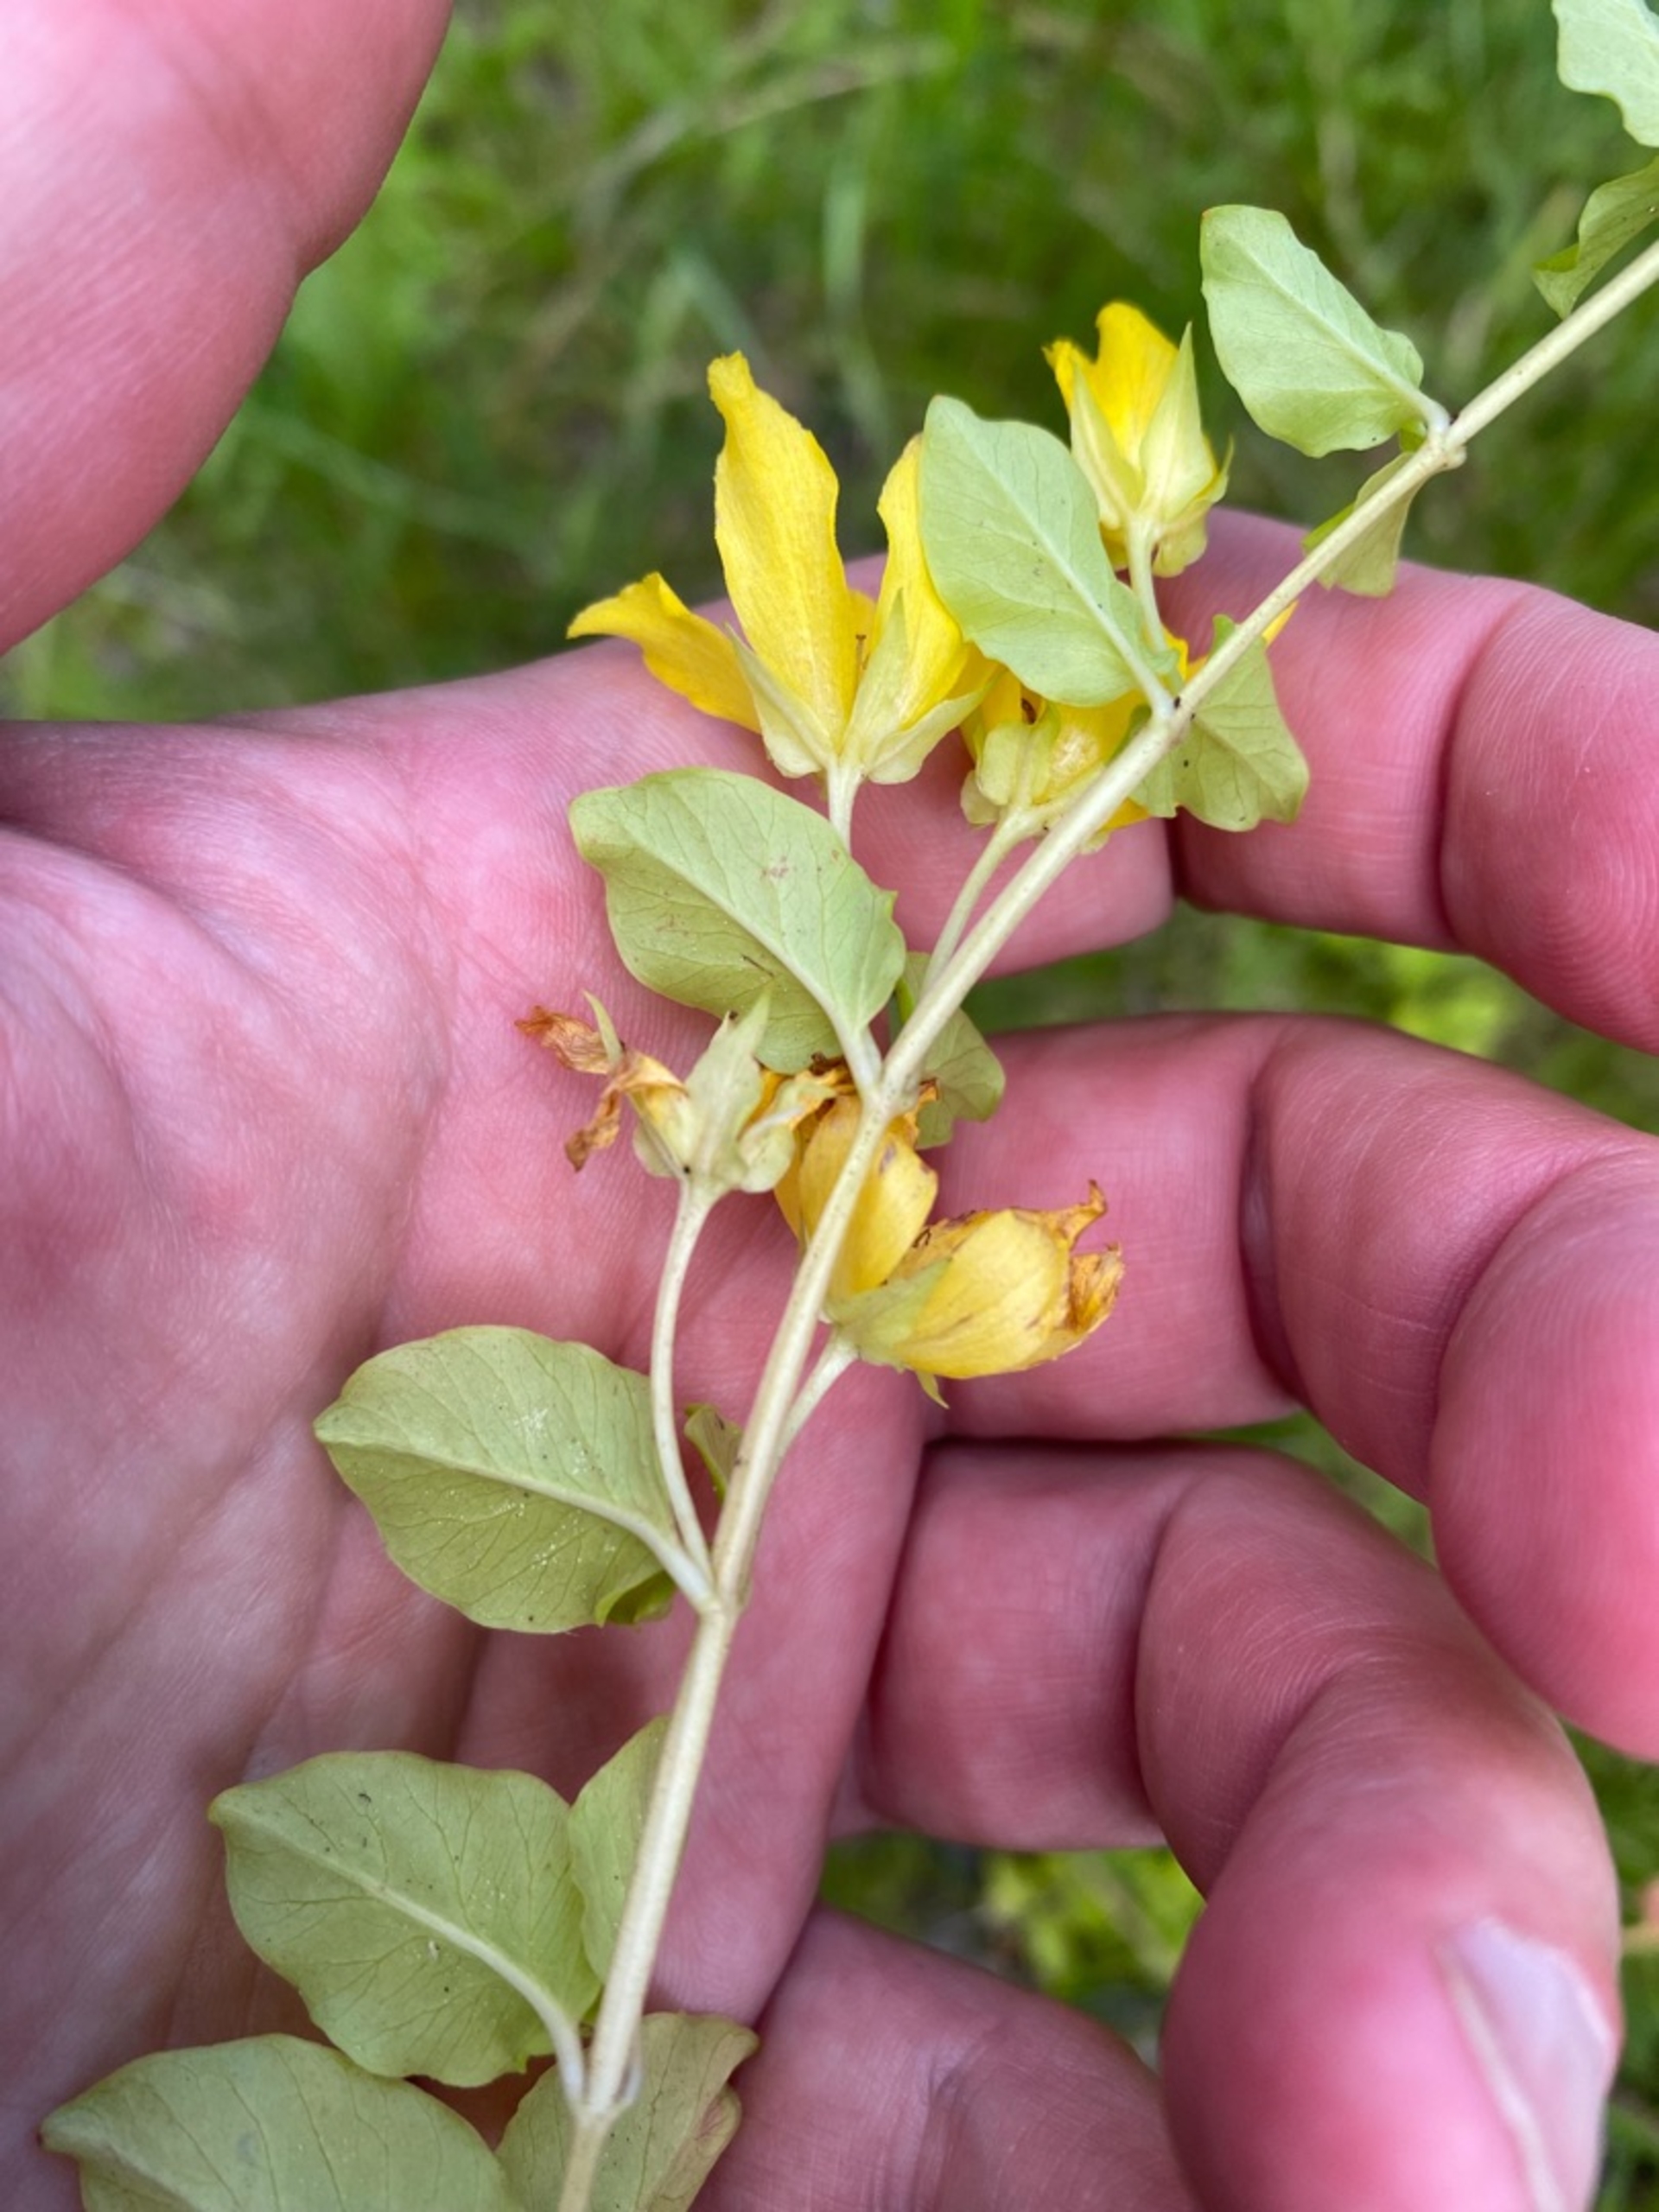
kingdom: Plantae
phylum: Tracheophyta
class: Magnoliopsida
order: Ericales
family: Primulaceae
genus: Lysimachia
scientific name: Lysimachia nummularia
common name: Pengebladet fredløs
